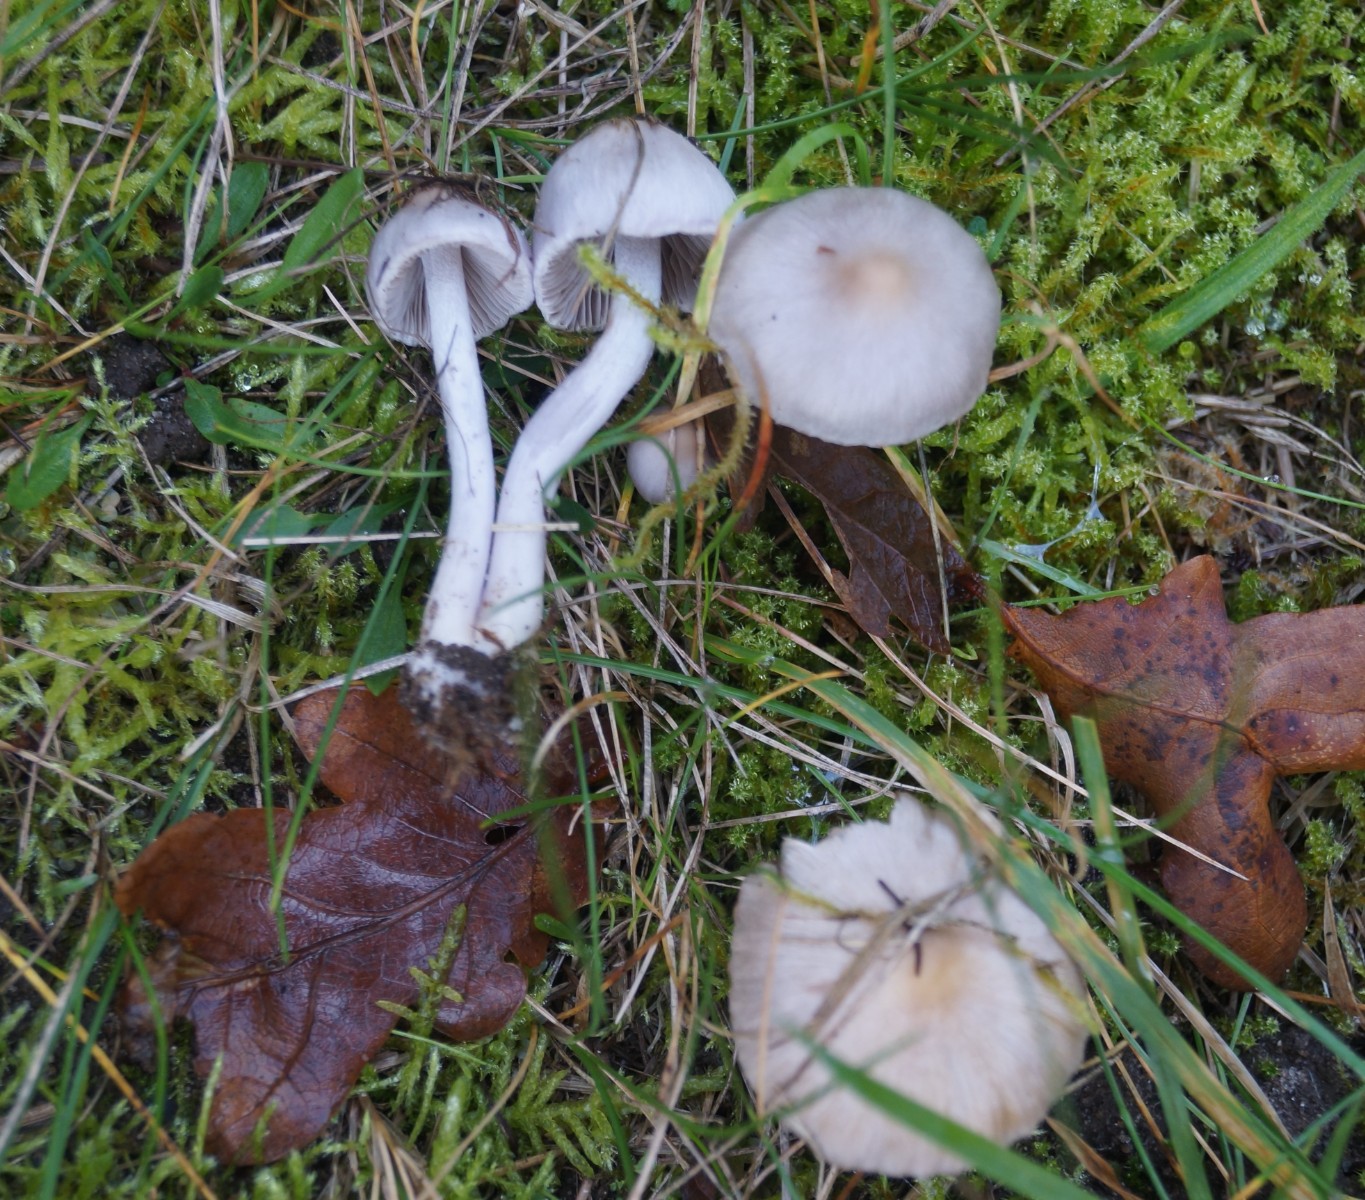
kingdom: Fungi
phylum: Basidiomycota
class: Agaricomycetes
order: Agaricales
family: Inocybaceae
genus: Inocybe
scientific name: Inocybe geophylla
